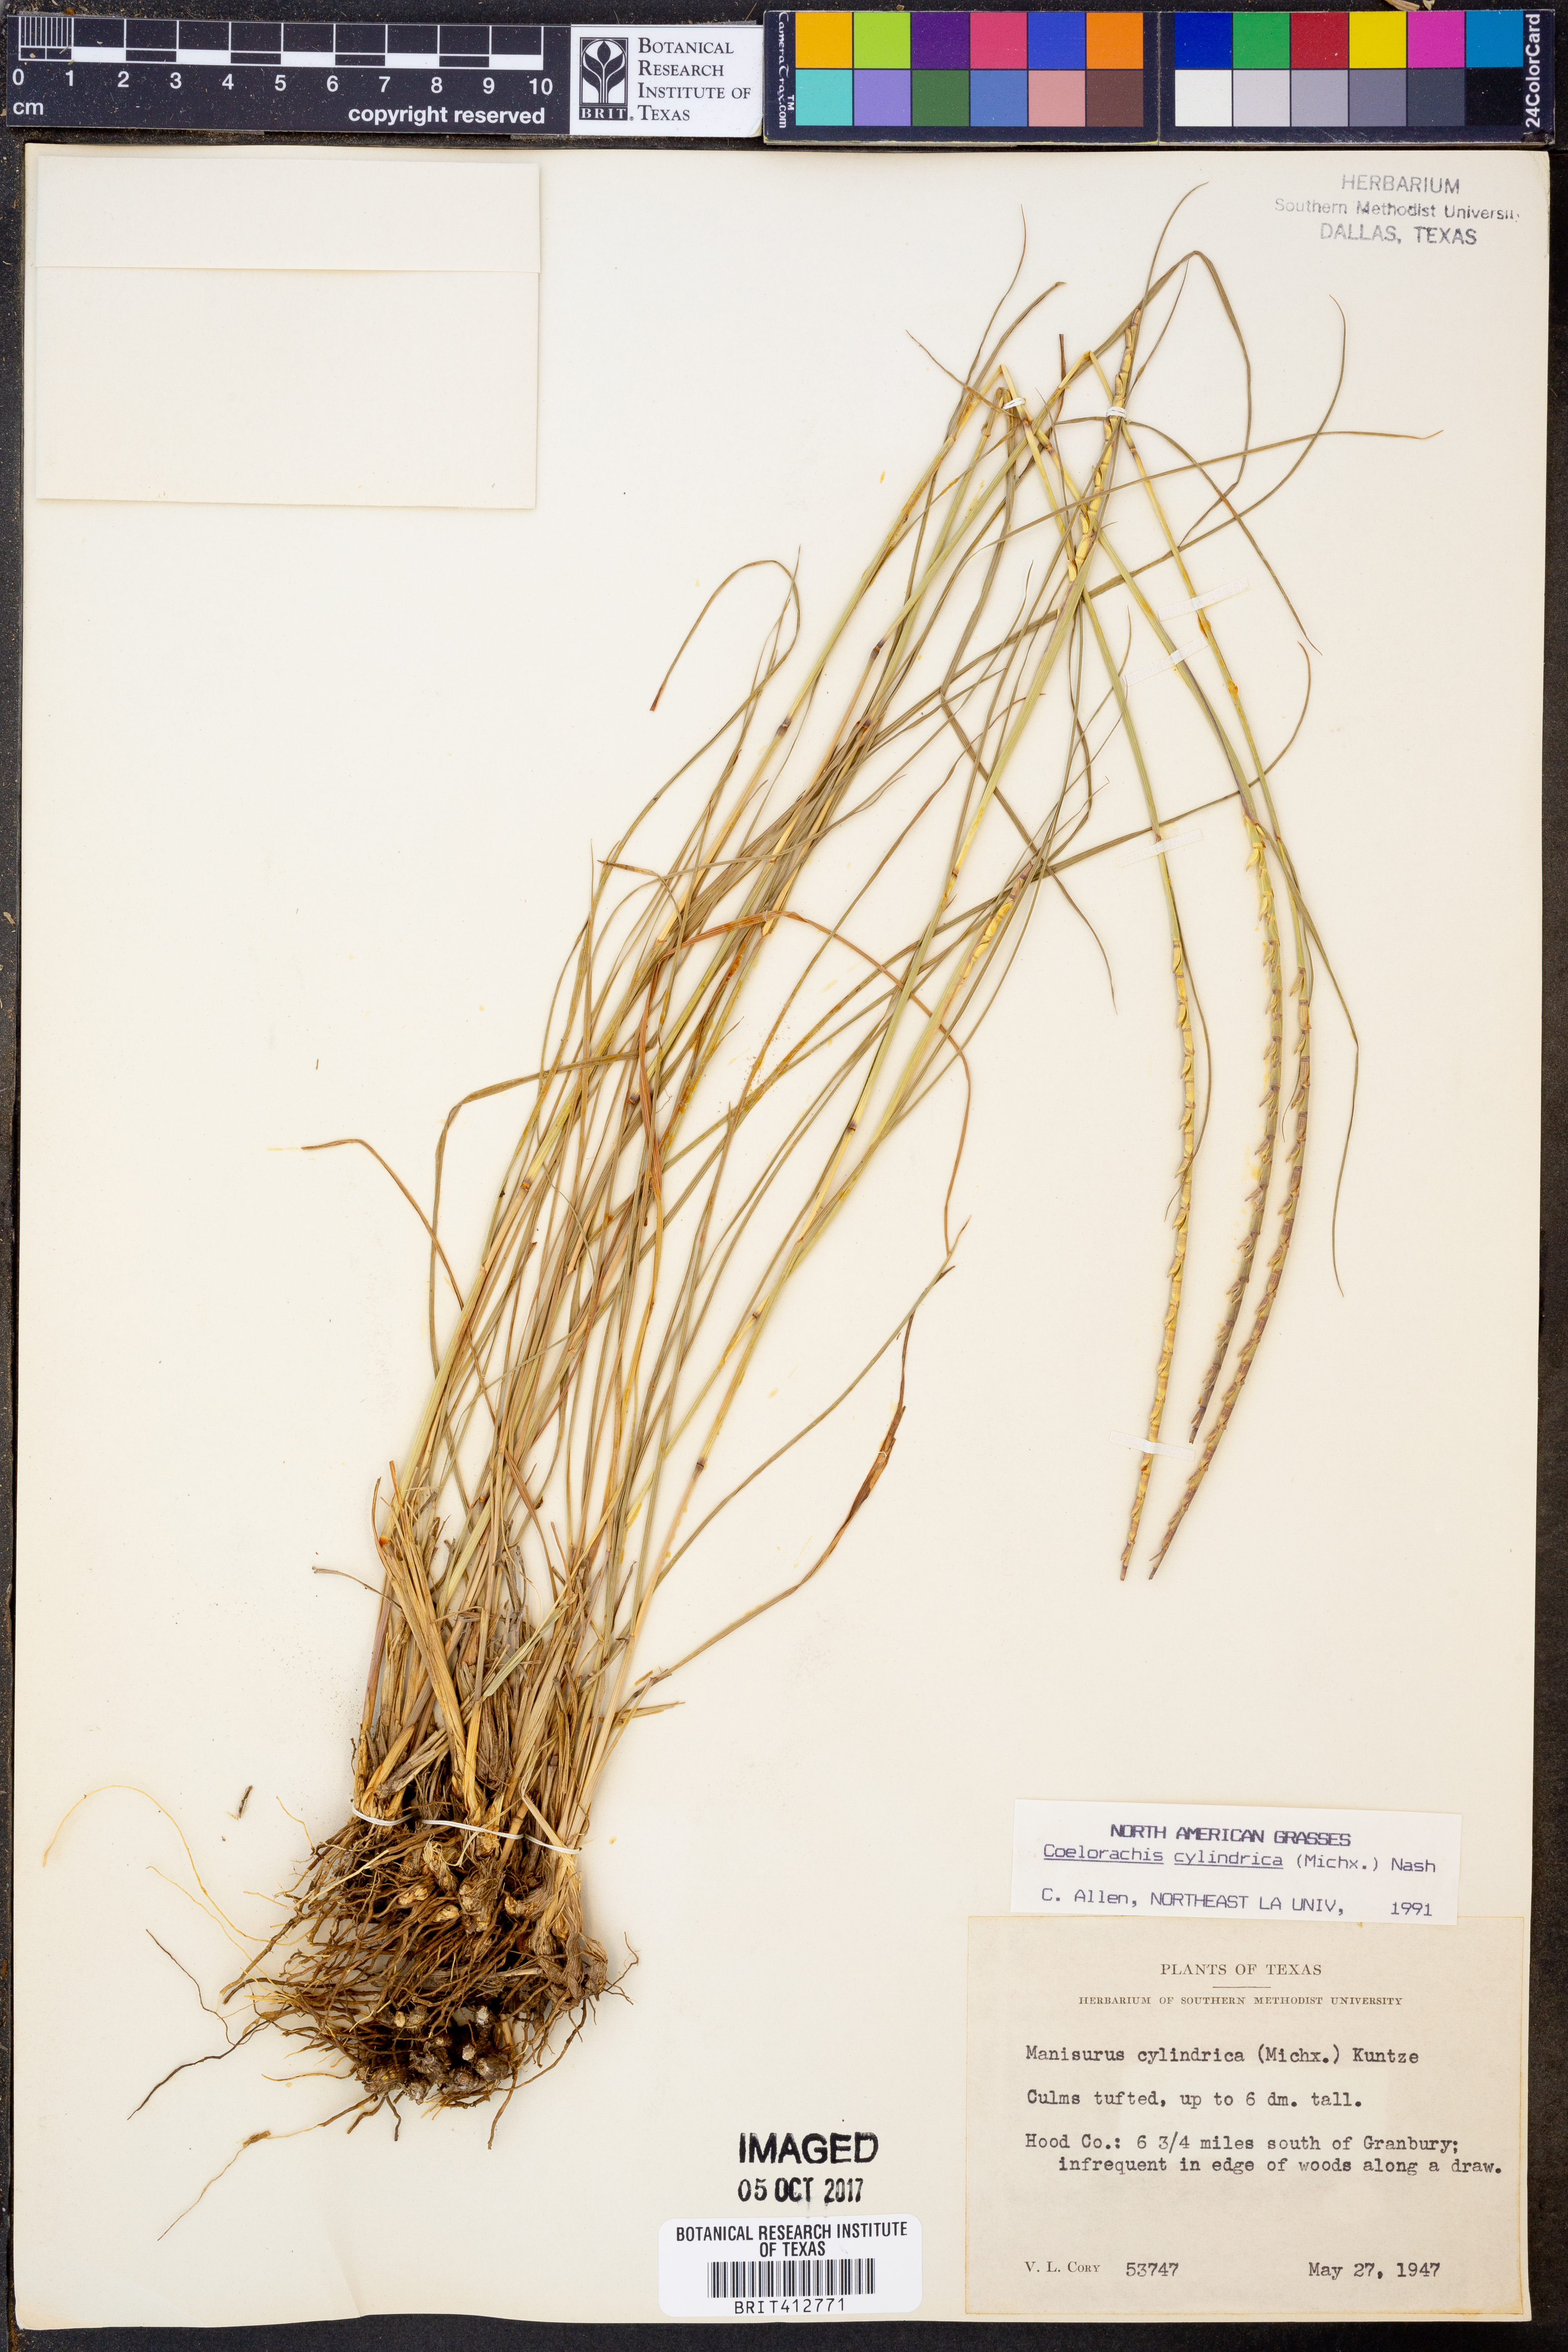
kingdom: Plantae
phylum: Tracheophyta
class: Liliopsida
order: Poales
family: Poaceae
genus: Rottboellia
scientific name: Rottboellia campestris
